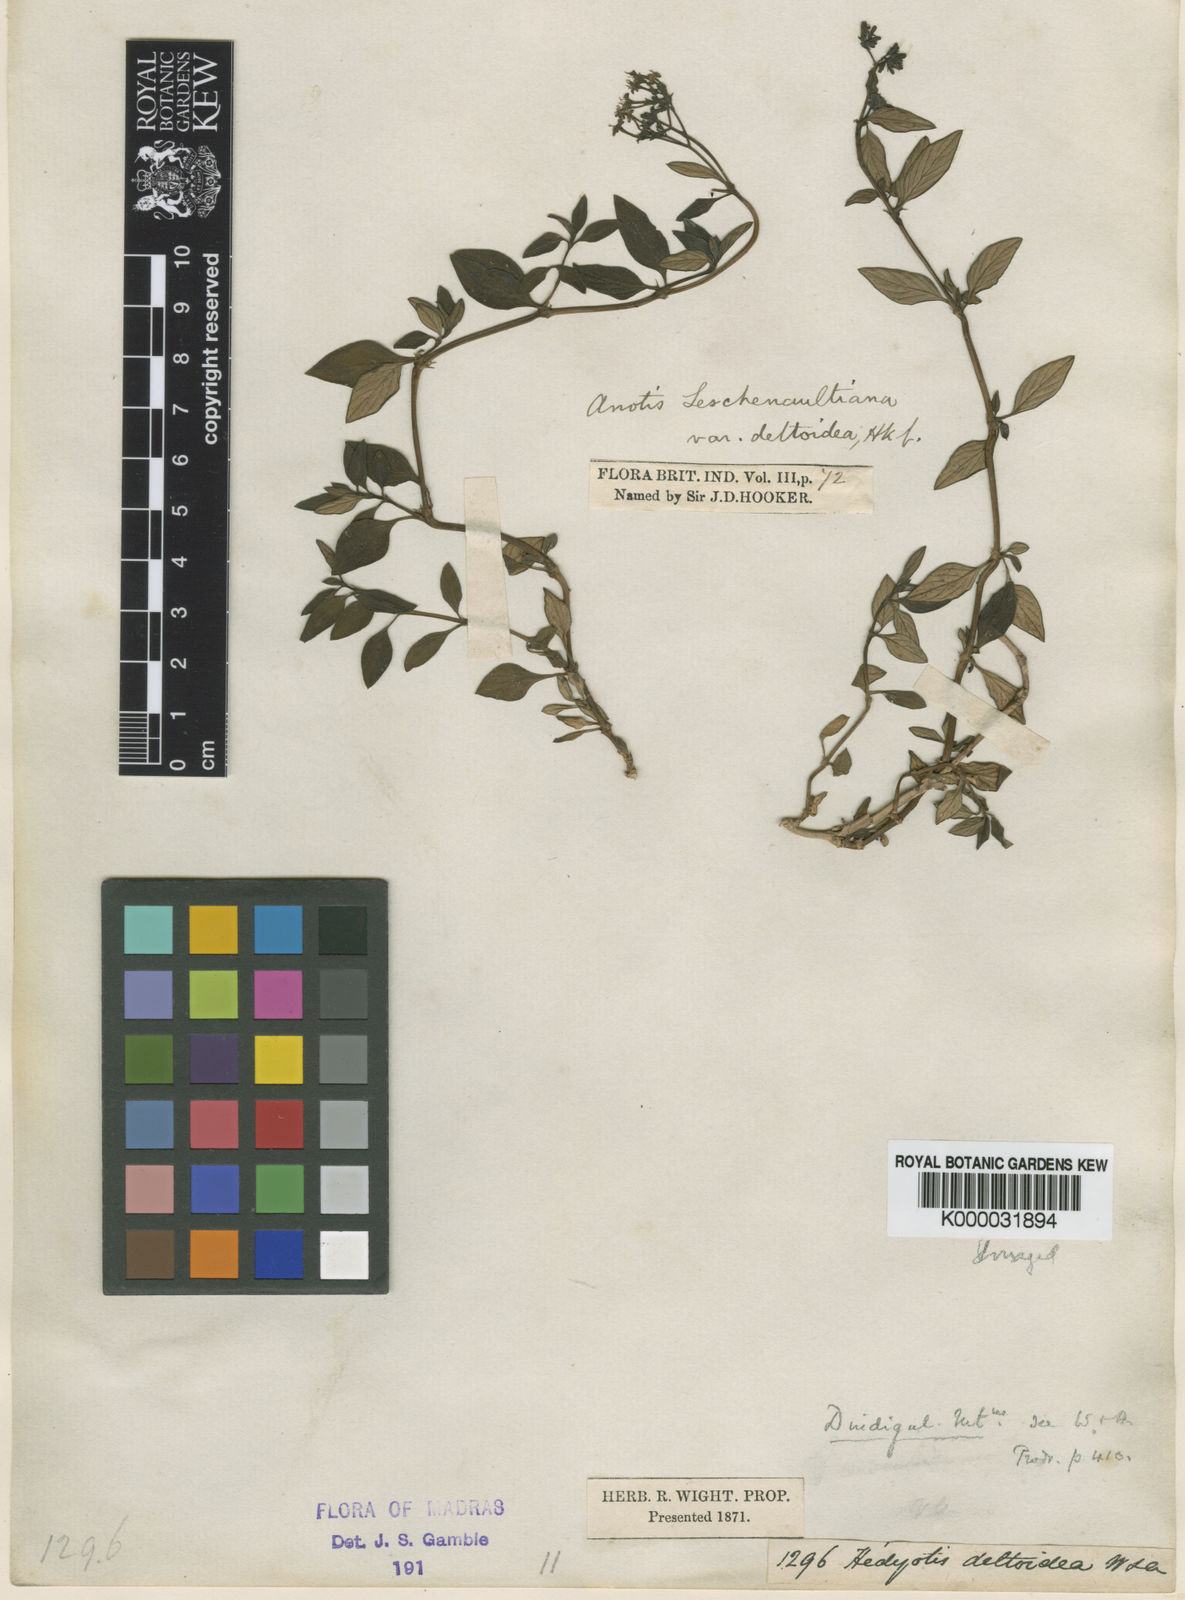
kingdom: Plantae
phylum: Tracheophyta
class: Magnoliopsida
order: Gentianales
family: Rubiaceae
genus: Neanotis
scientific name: Neanotis indica
